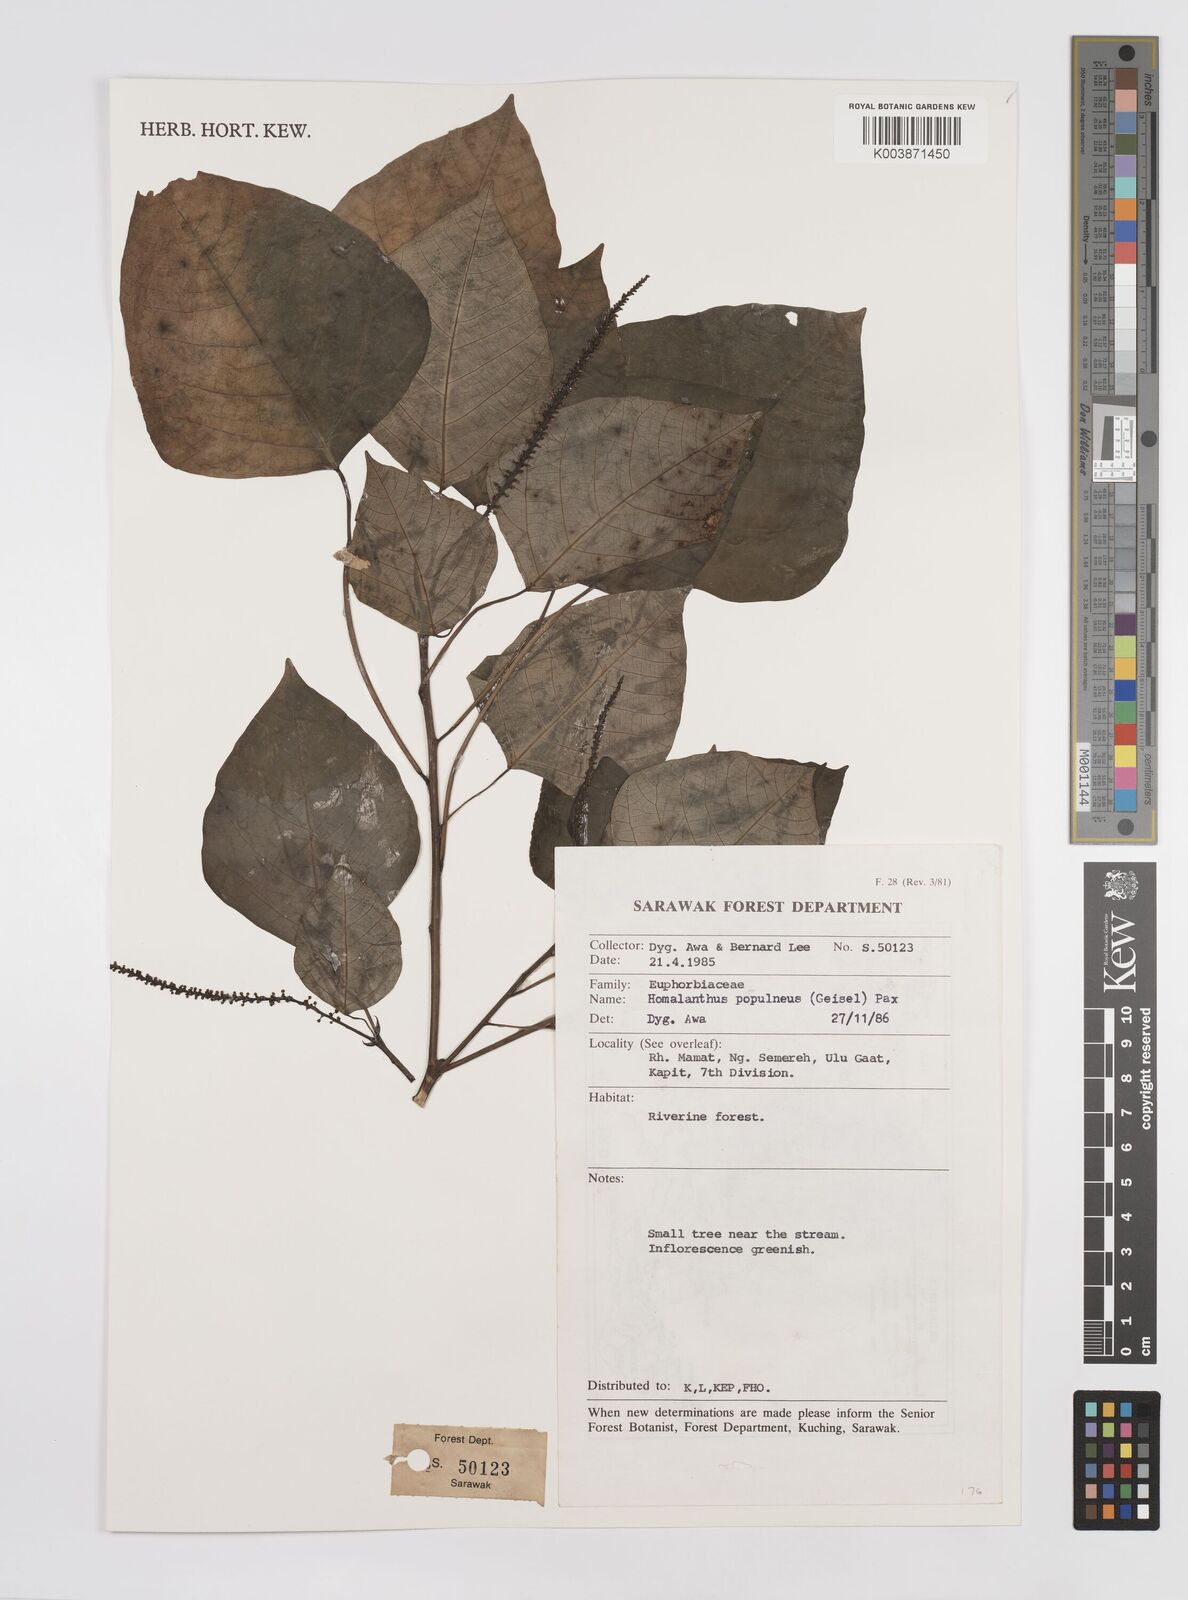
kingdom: Plantae
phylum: Tracheophyta
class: Magnoliopsida
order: Malpighiales
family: Euphorbiaceae
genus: Homalanthus
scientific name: Homalanthus populneus
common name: Spurge
